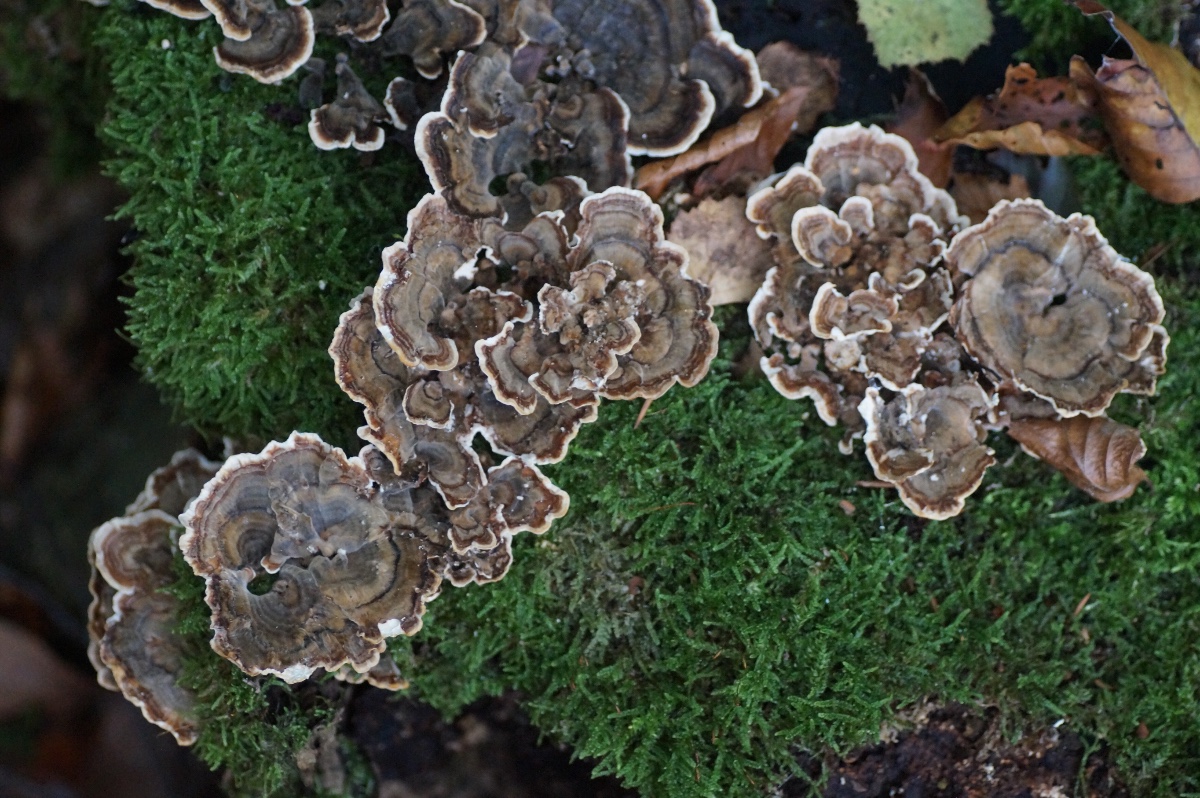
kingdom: Fungi
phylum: Basidiomycota
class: Agaricomycetes
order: Polyporales
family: Polyporaceae
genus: Trametes
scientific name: Trametes versicolor
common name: broget læderporesvamp
